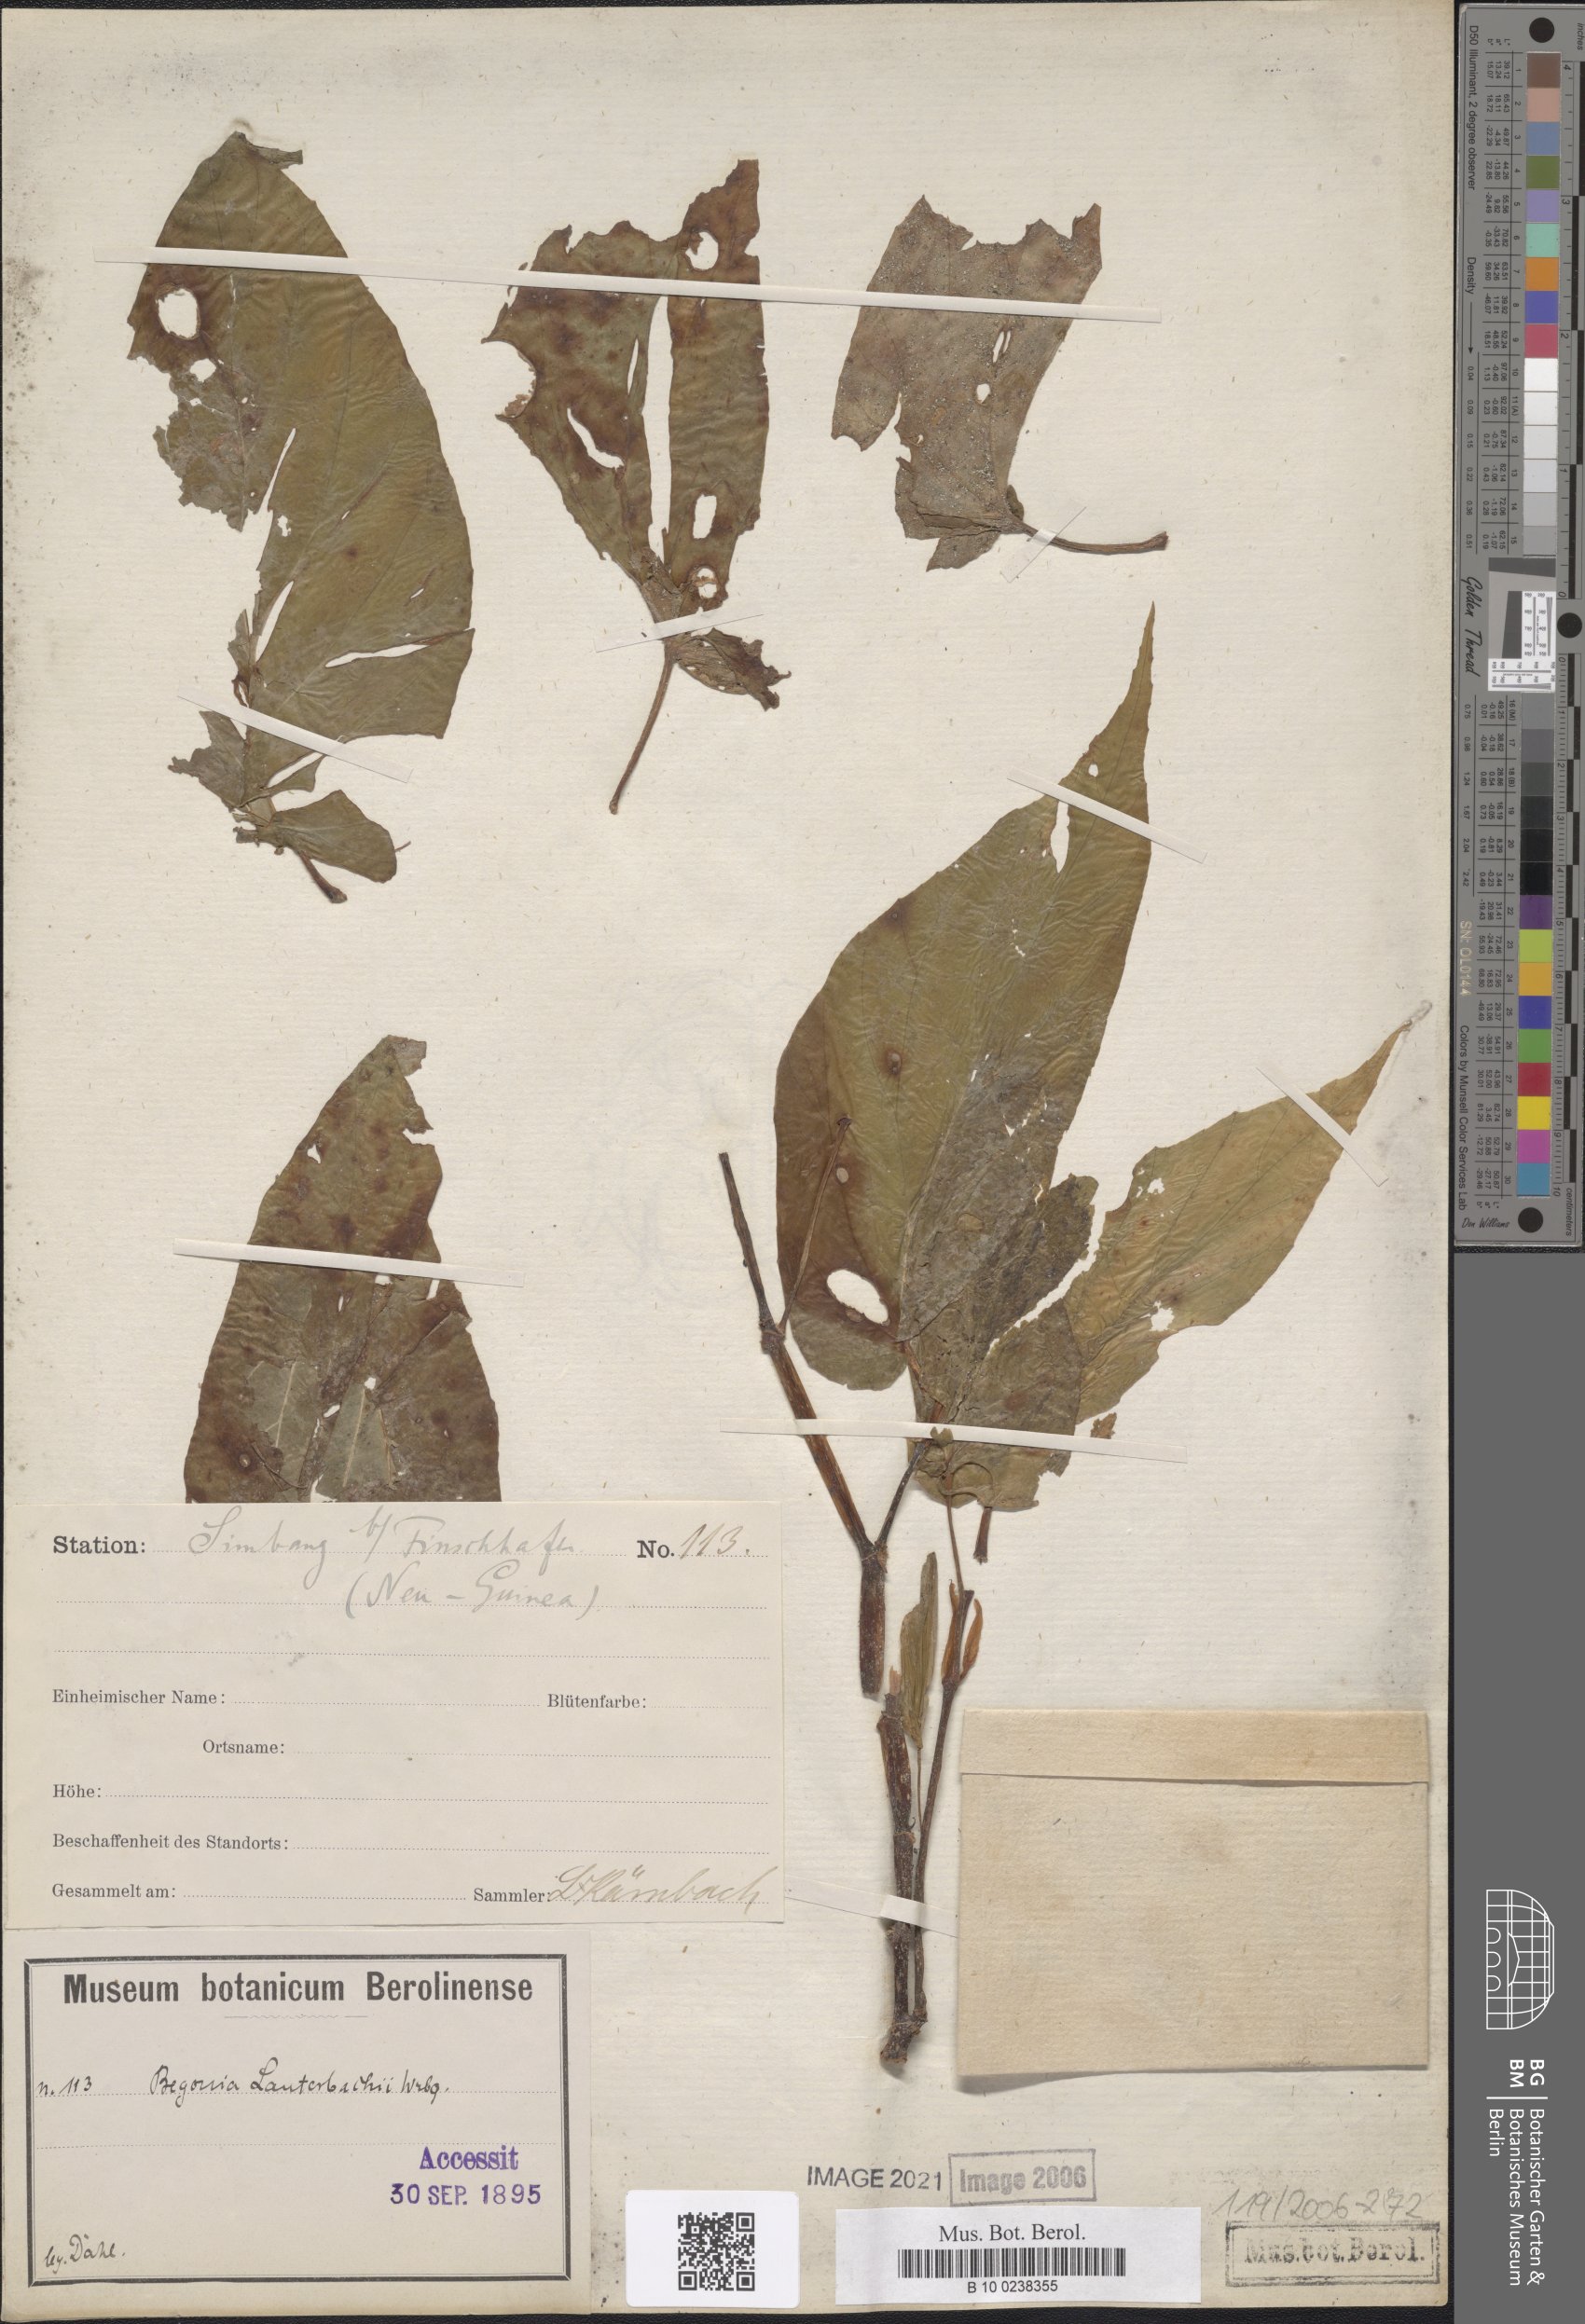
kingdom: Plantae
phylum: Tracheophyta
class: Magnoliopsida
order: Cucurbitales
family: Begoniaceae
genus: Begonia
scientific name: Begonia lauterbachii
